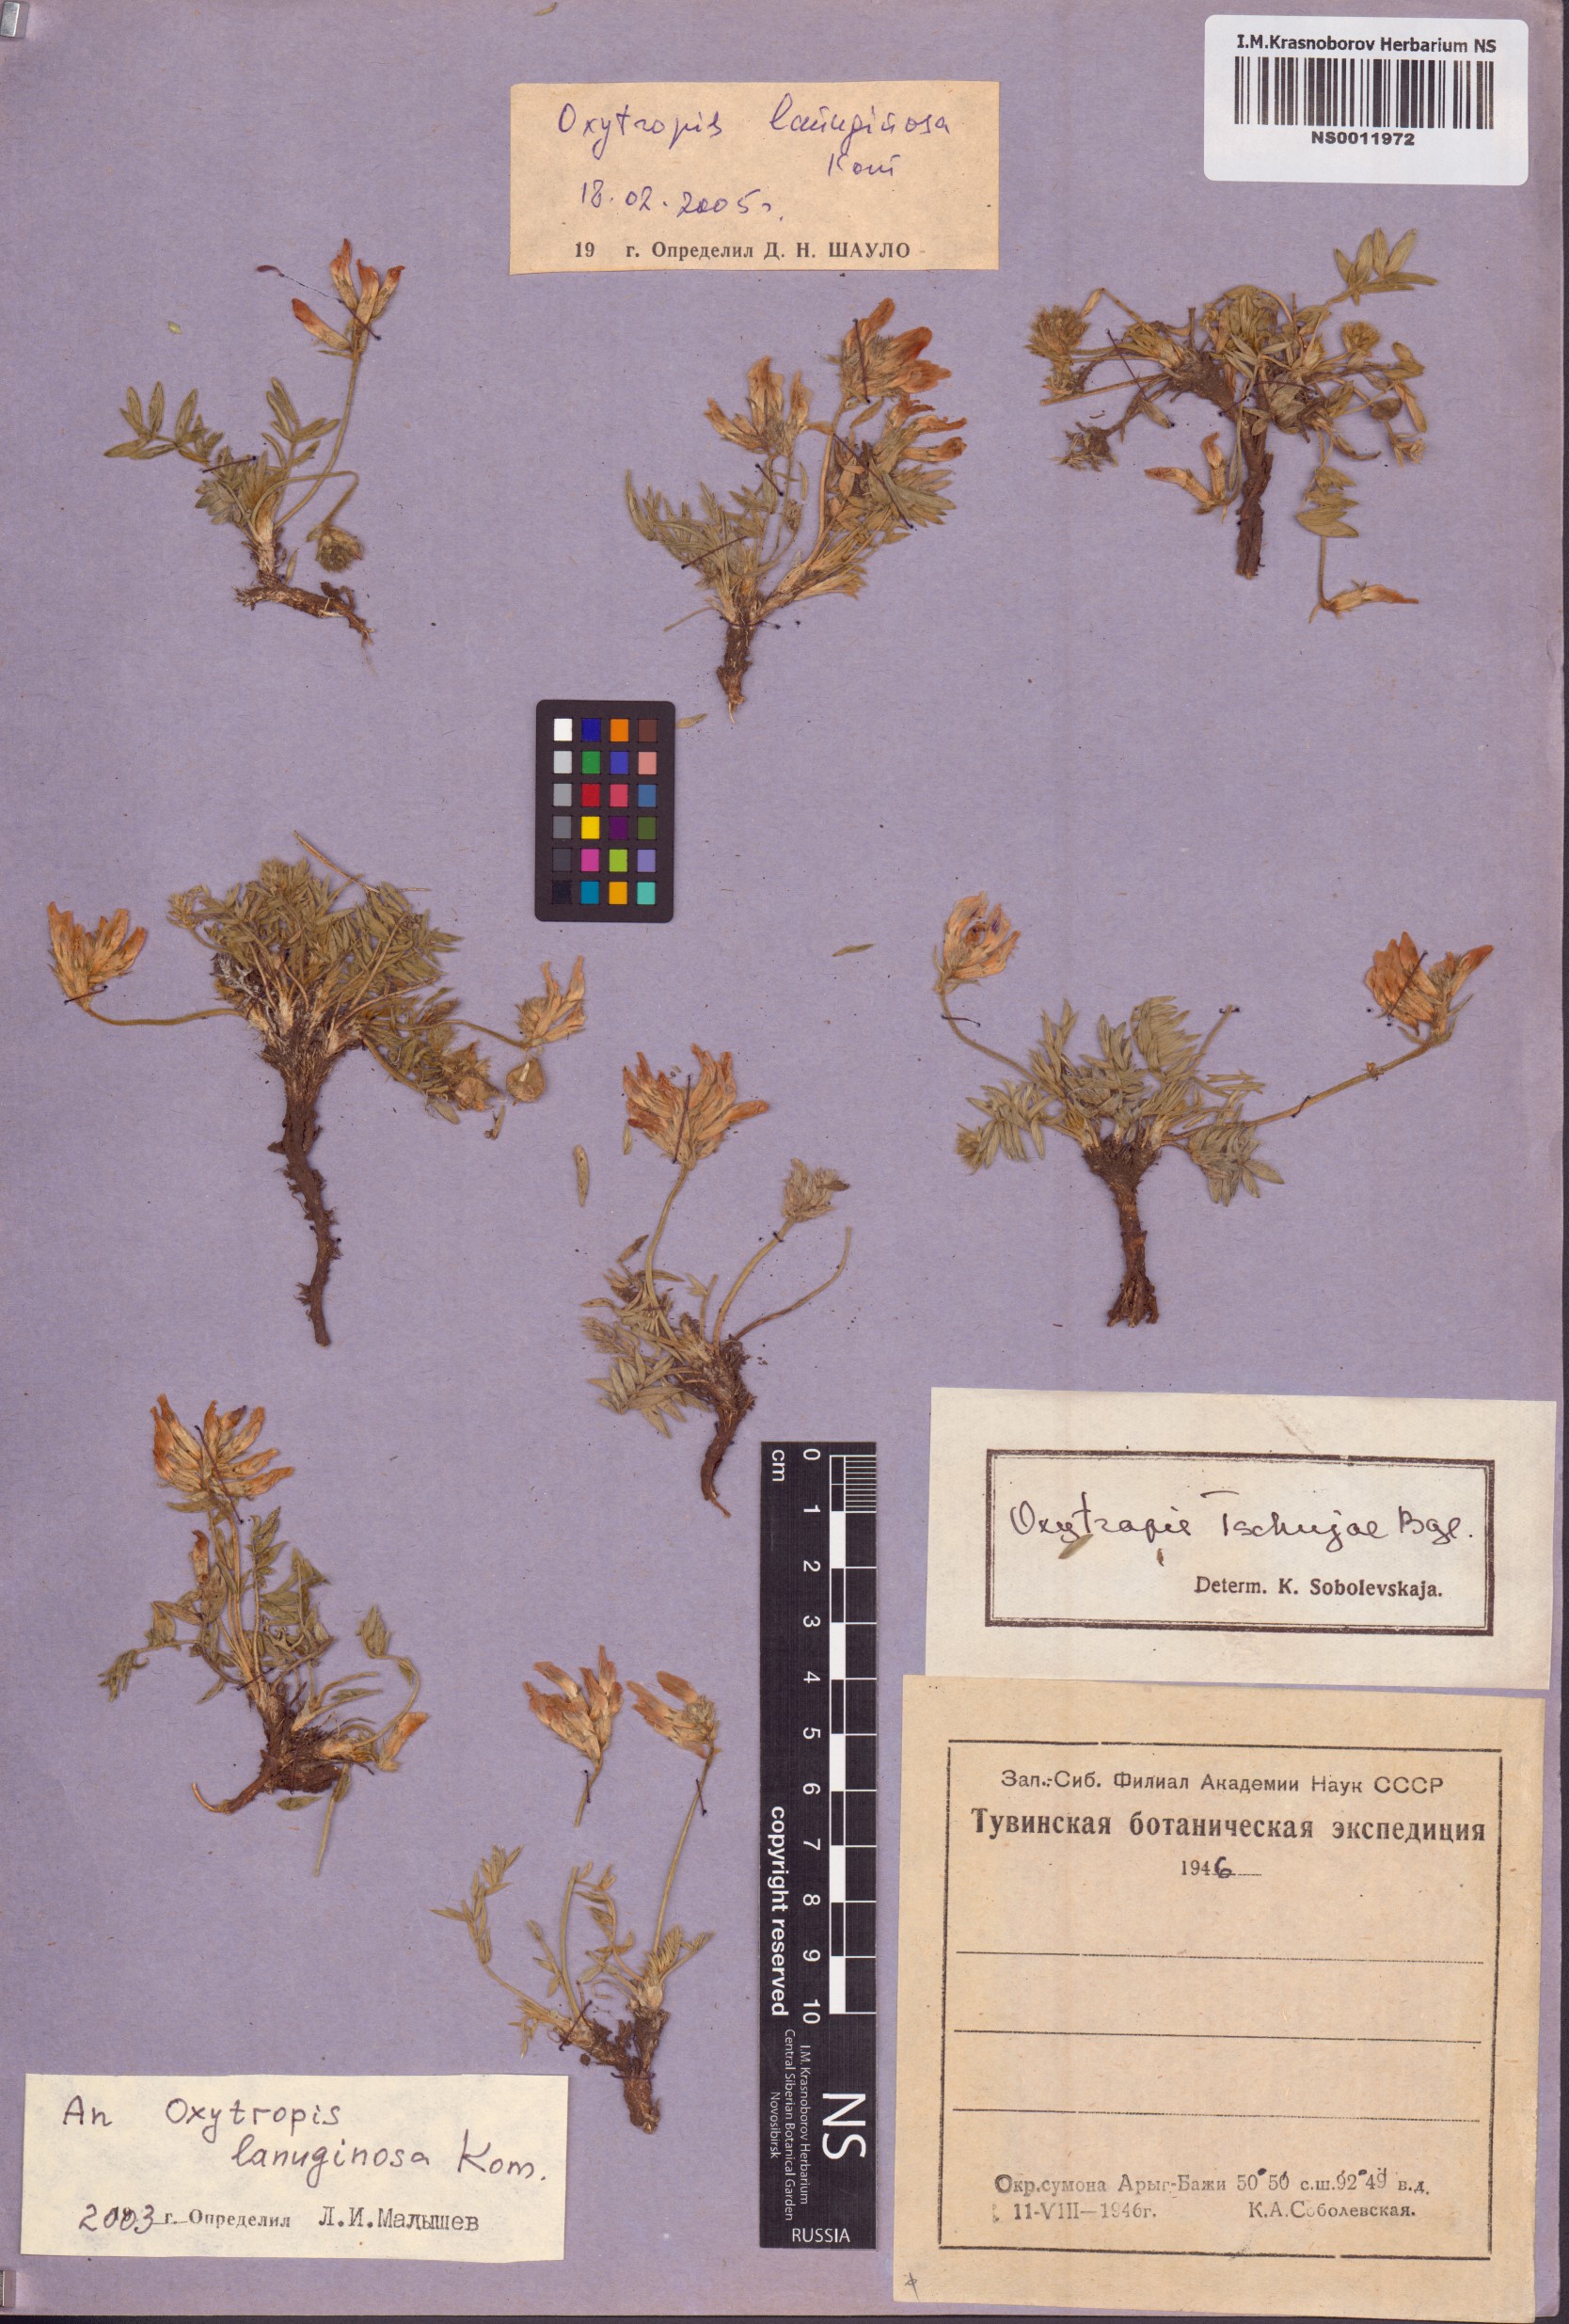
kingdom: Plantae
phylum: Tracheophyta
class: Magnoliopsida
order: Fabales
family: Fabaceae
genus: Oxytropis
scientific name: Oxytropis lanuginosa
